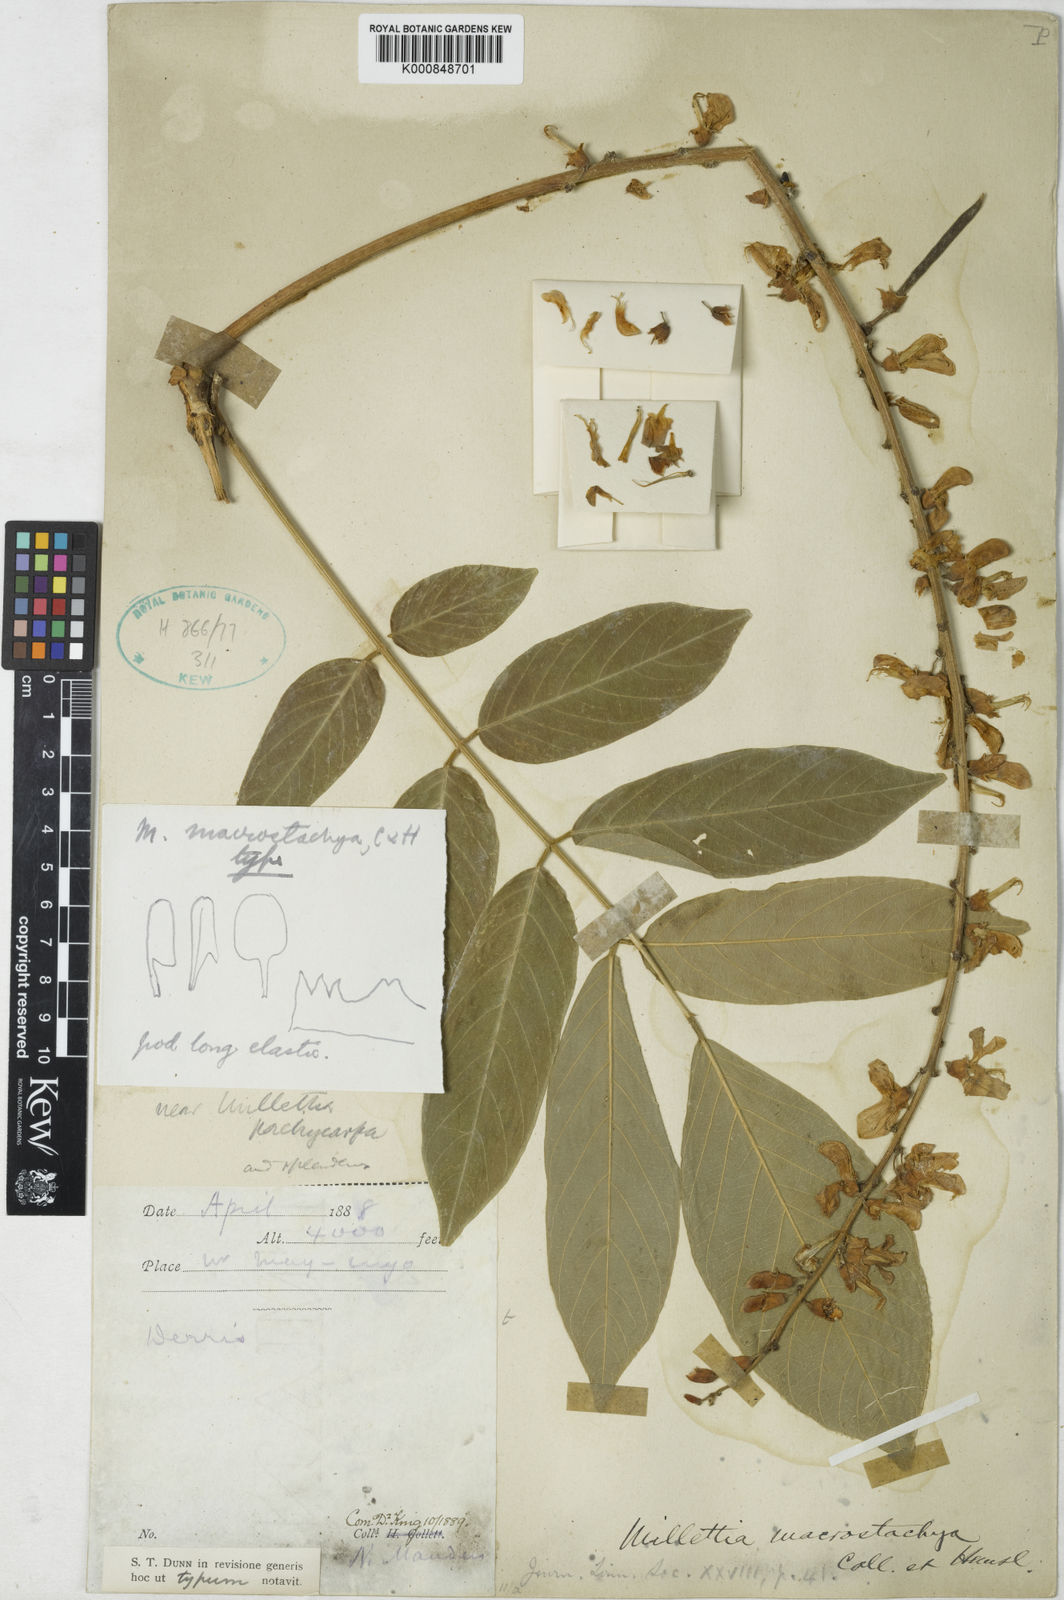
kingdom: Plantae
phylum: Tracheophyta
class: Magnoliopsida
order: Fabales
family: Fabaceae
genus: Millettia
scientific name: Millettia macrostachya
